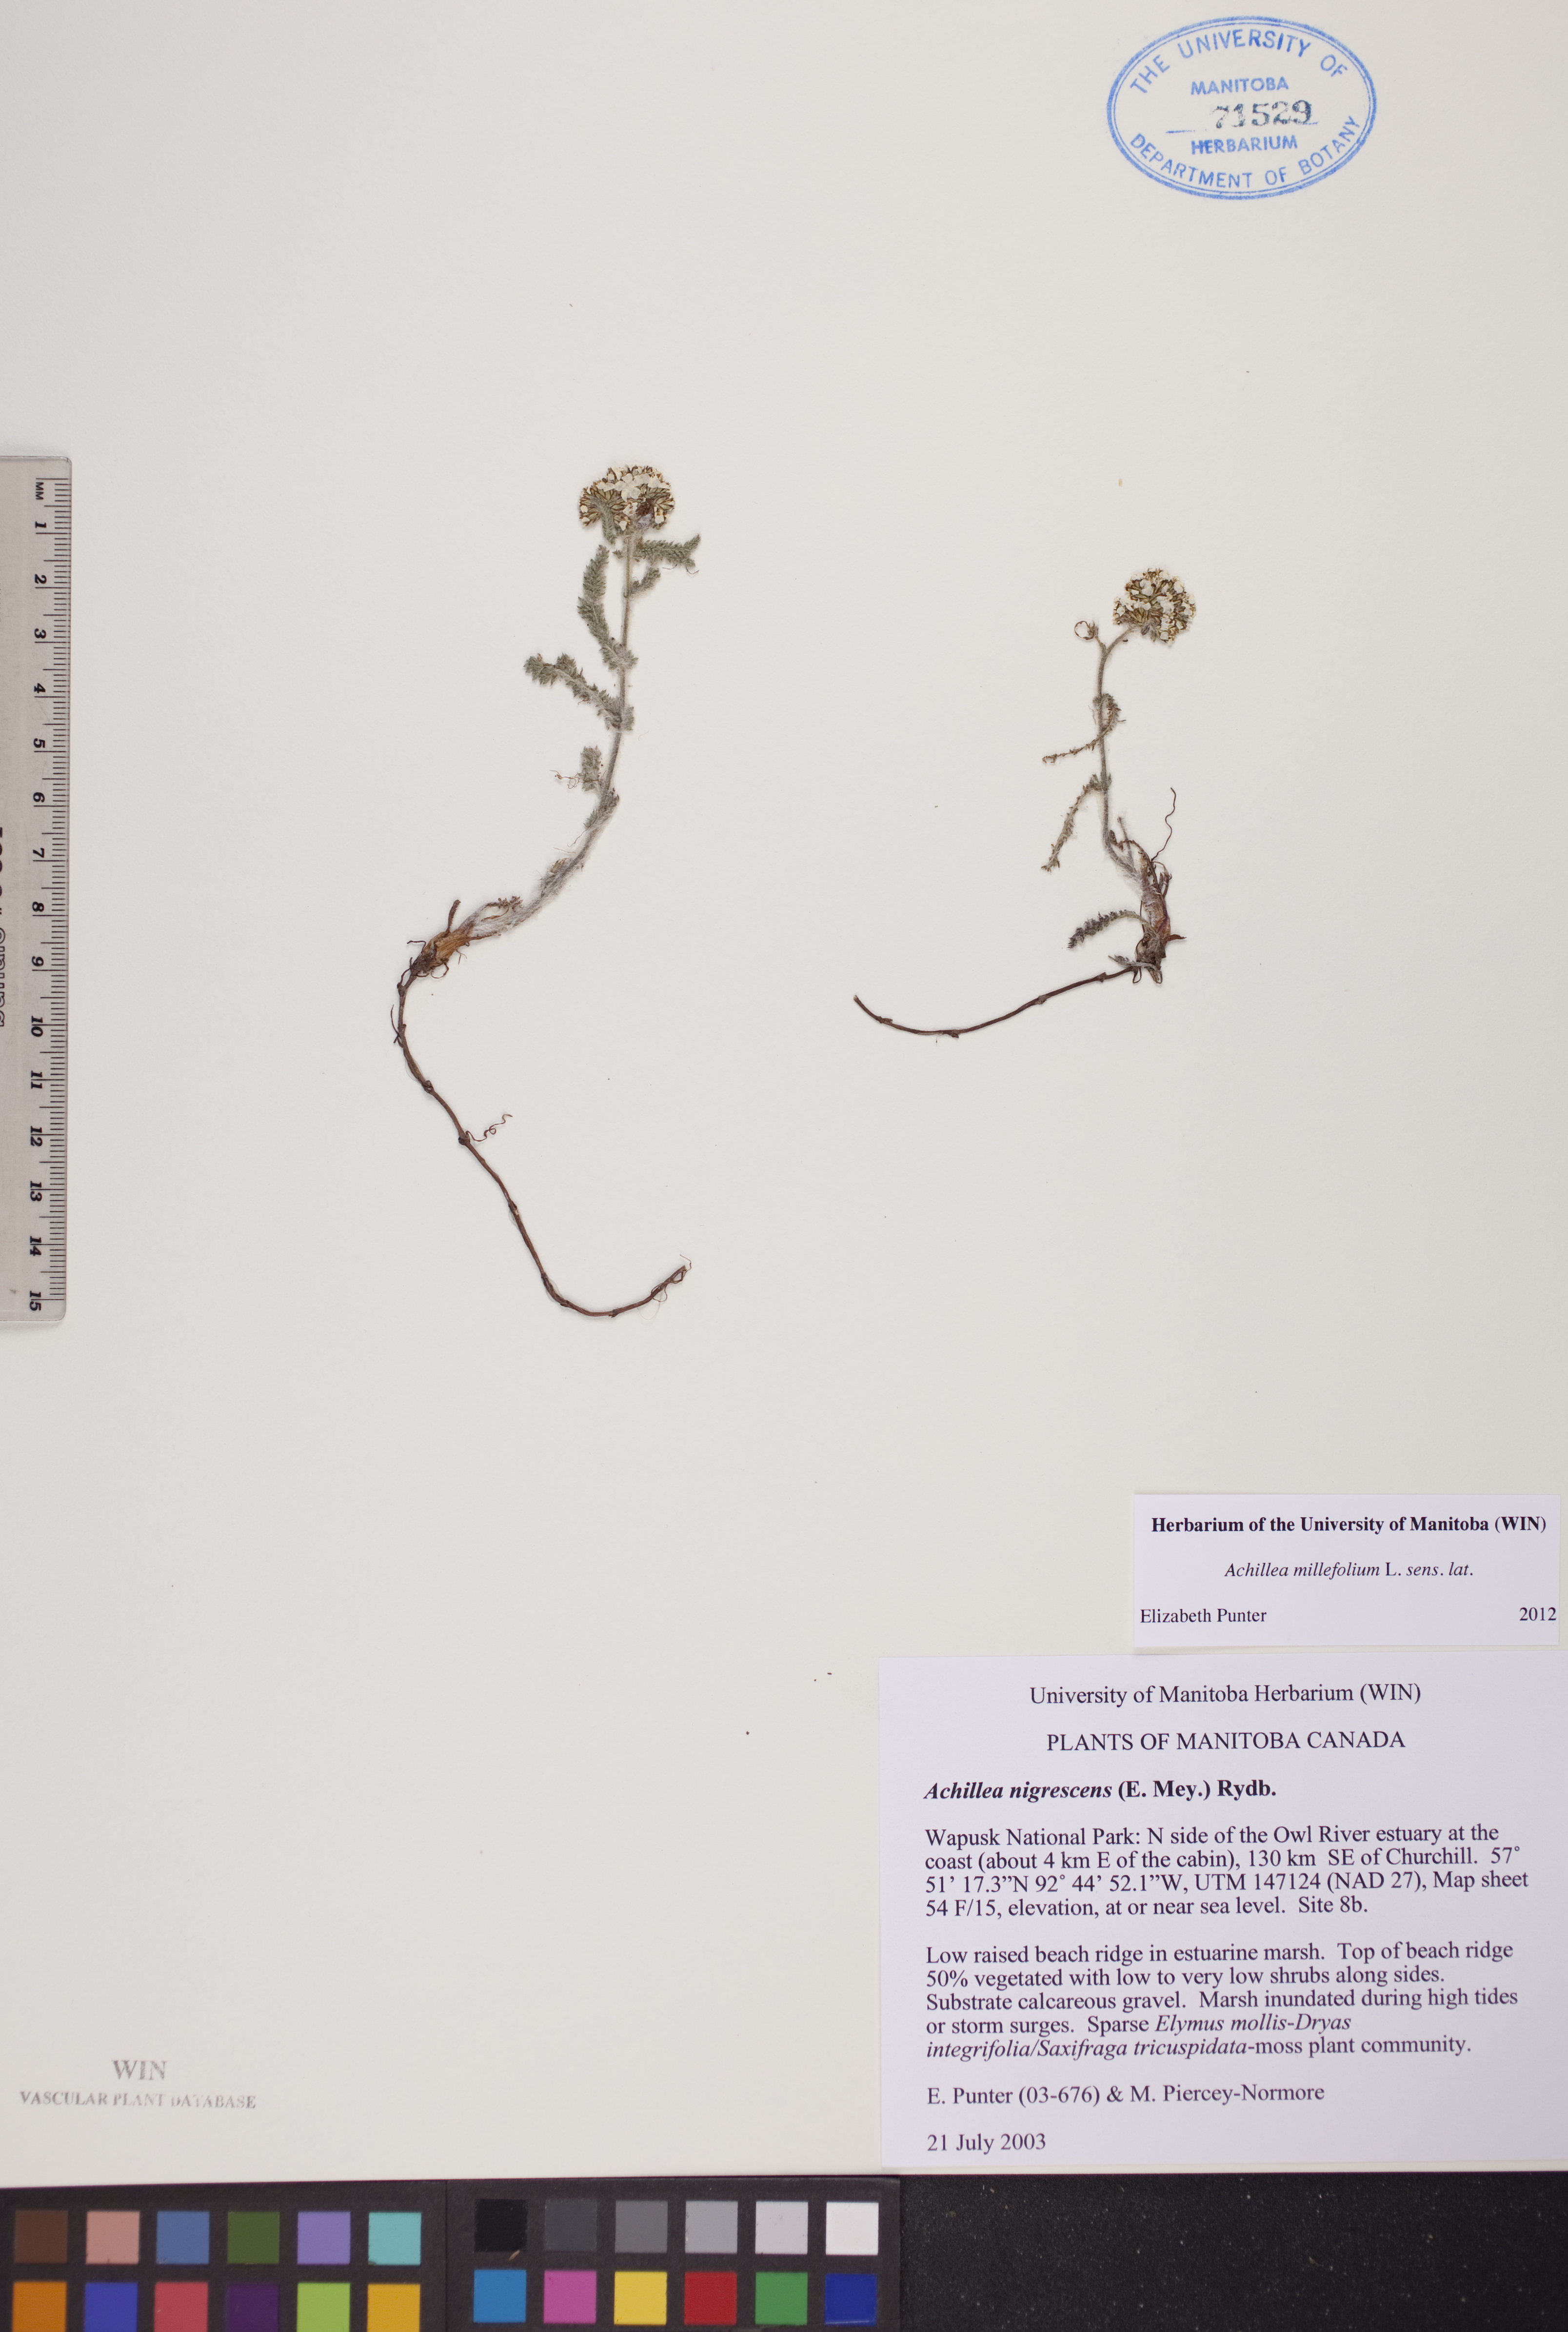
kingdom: Plantae
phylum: Tracheophyta
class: Magnoliopsida
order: Asterales
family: Asteraceae
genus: Achillea
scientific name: Achillea millefolium
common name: Yarrow
